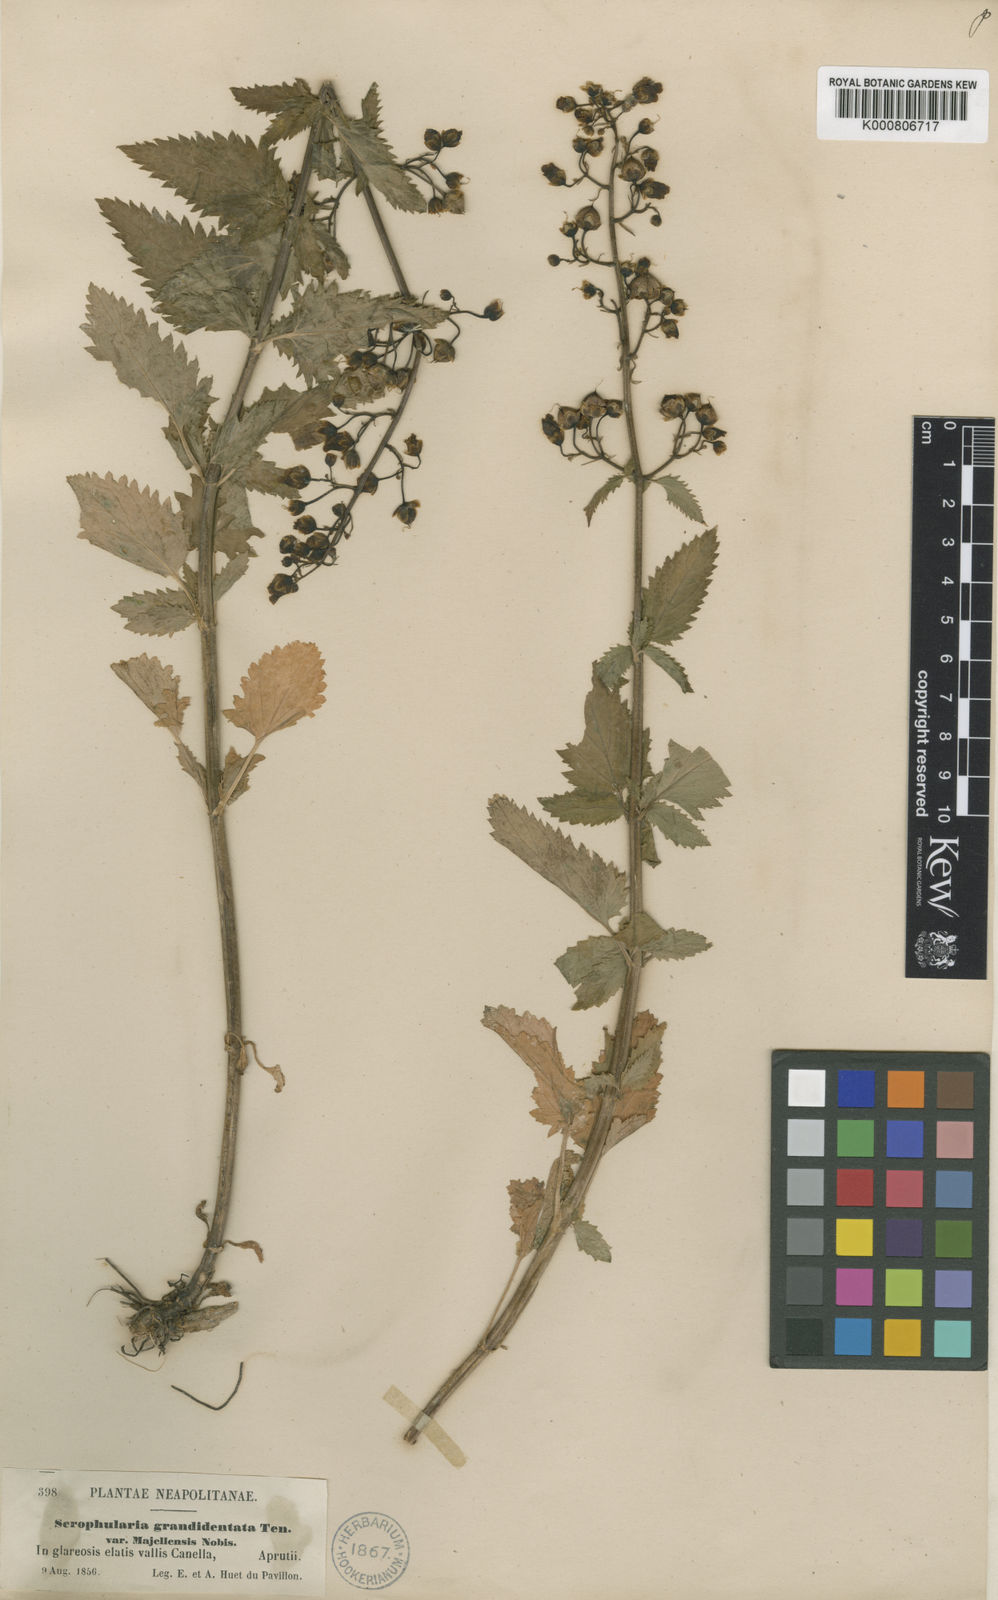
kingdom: Plantae
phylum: Tracheophyta
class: Magnoliopsida
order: Lamiales
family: Scrophulariaceae
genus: Scrophularia
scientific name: Scrophularia
